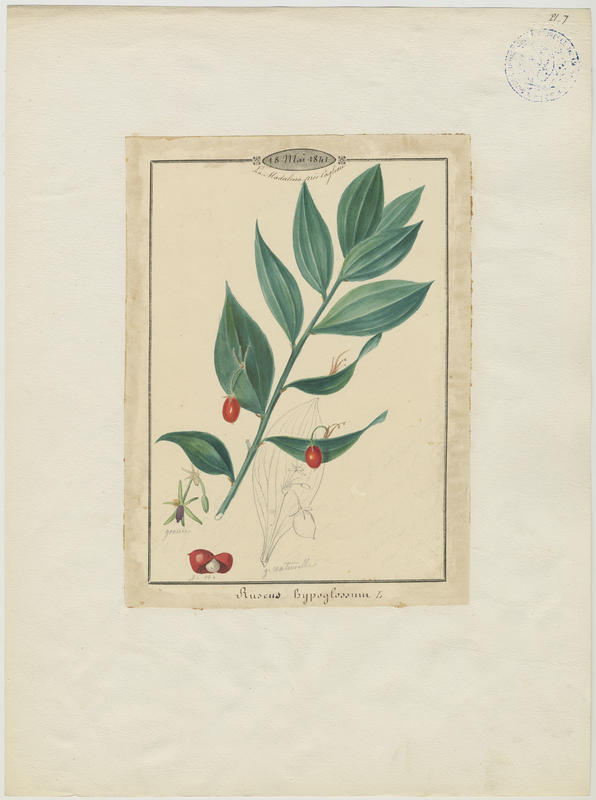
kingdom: Plantae
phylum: Tracheophyta
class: Liliopsida
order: Asparagales
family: Asparagaceae
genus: Ruscus
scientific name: Ruscus hypoglossum
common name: Spineless butcher's-broom
